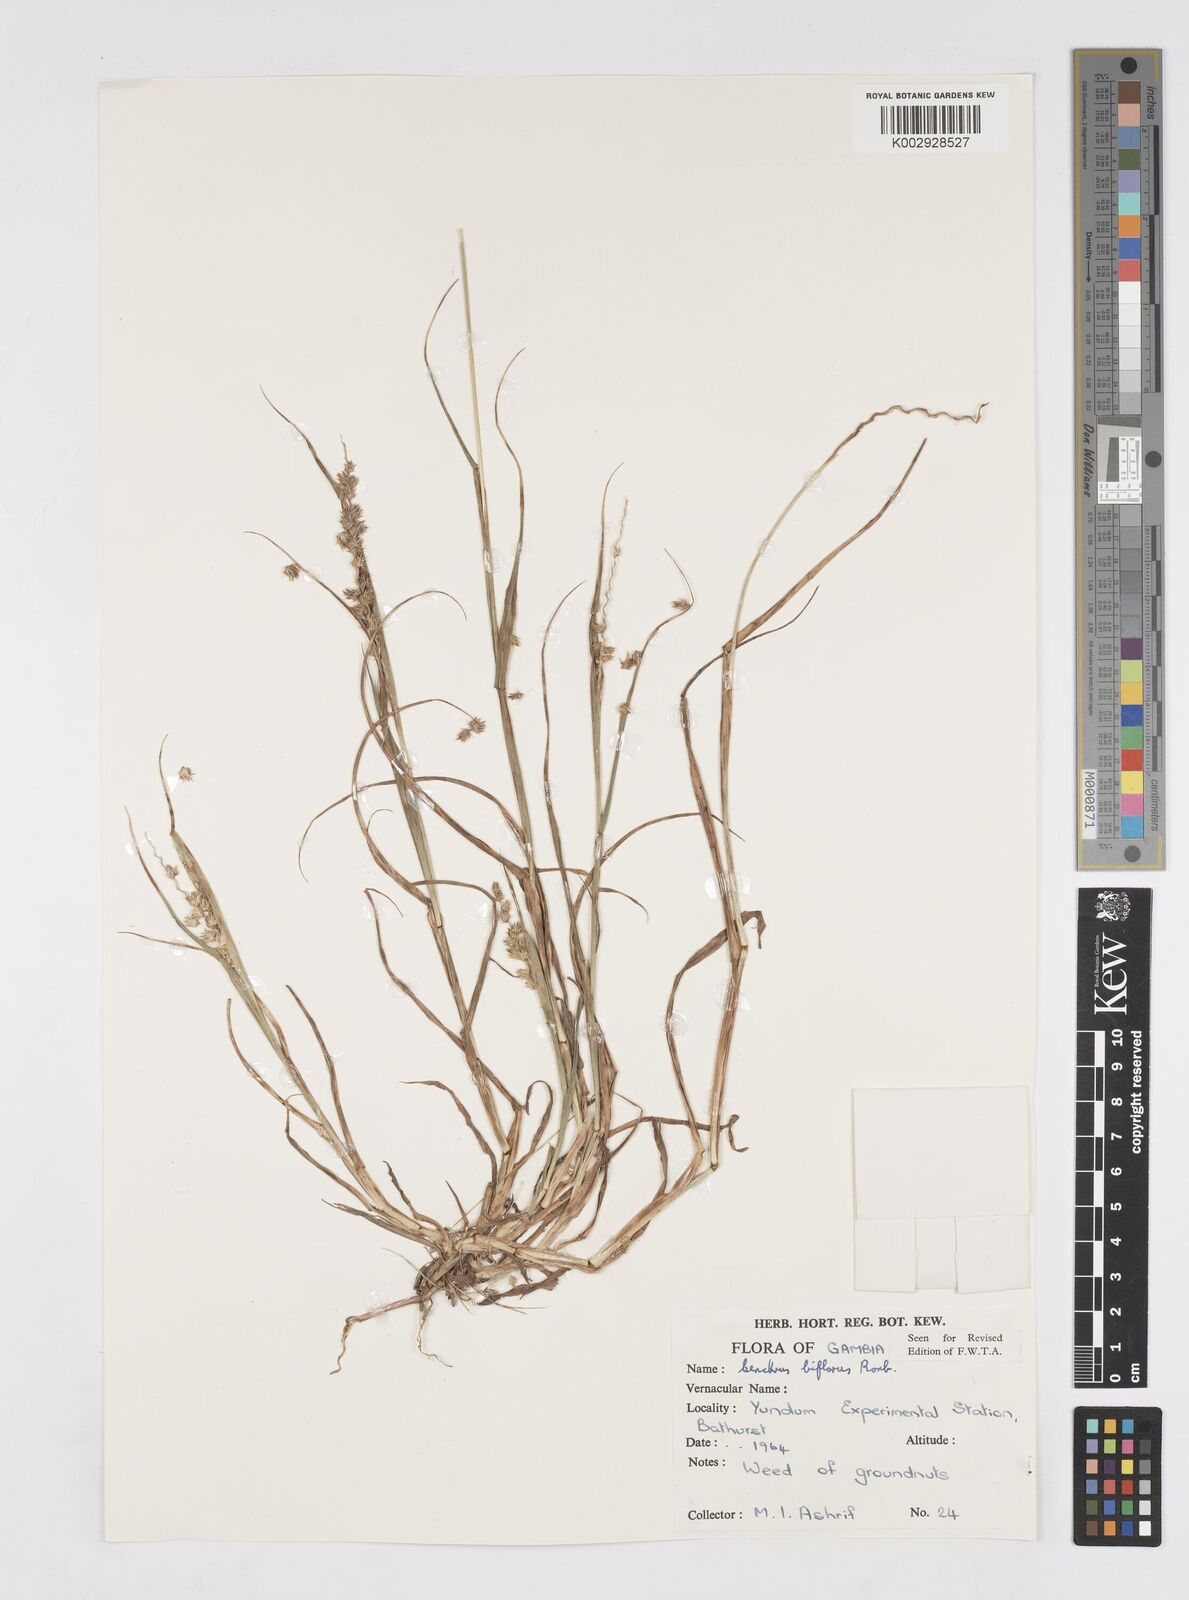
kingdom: Plantae
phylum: Tracheophyta
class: Liliopsida
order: Poales
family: Poaceae
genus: Cenchrus
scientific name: Cenchrus biflorus
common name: Indian sandbur
